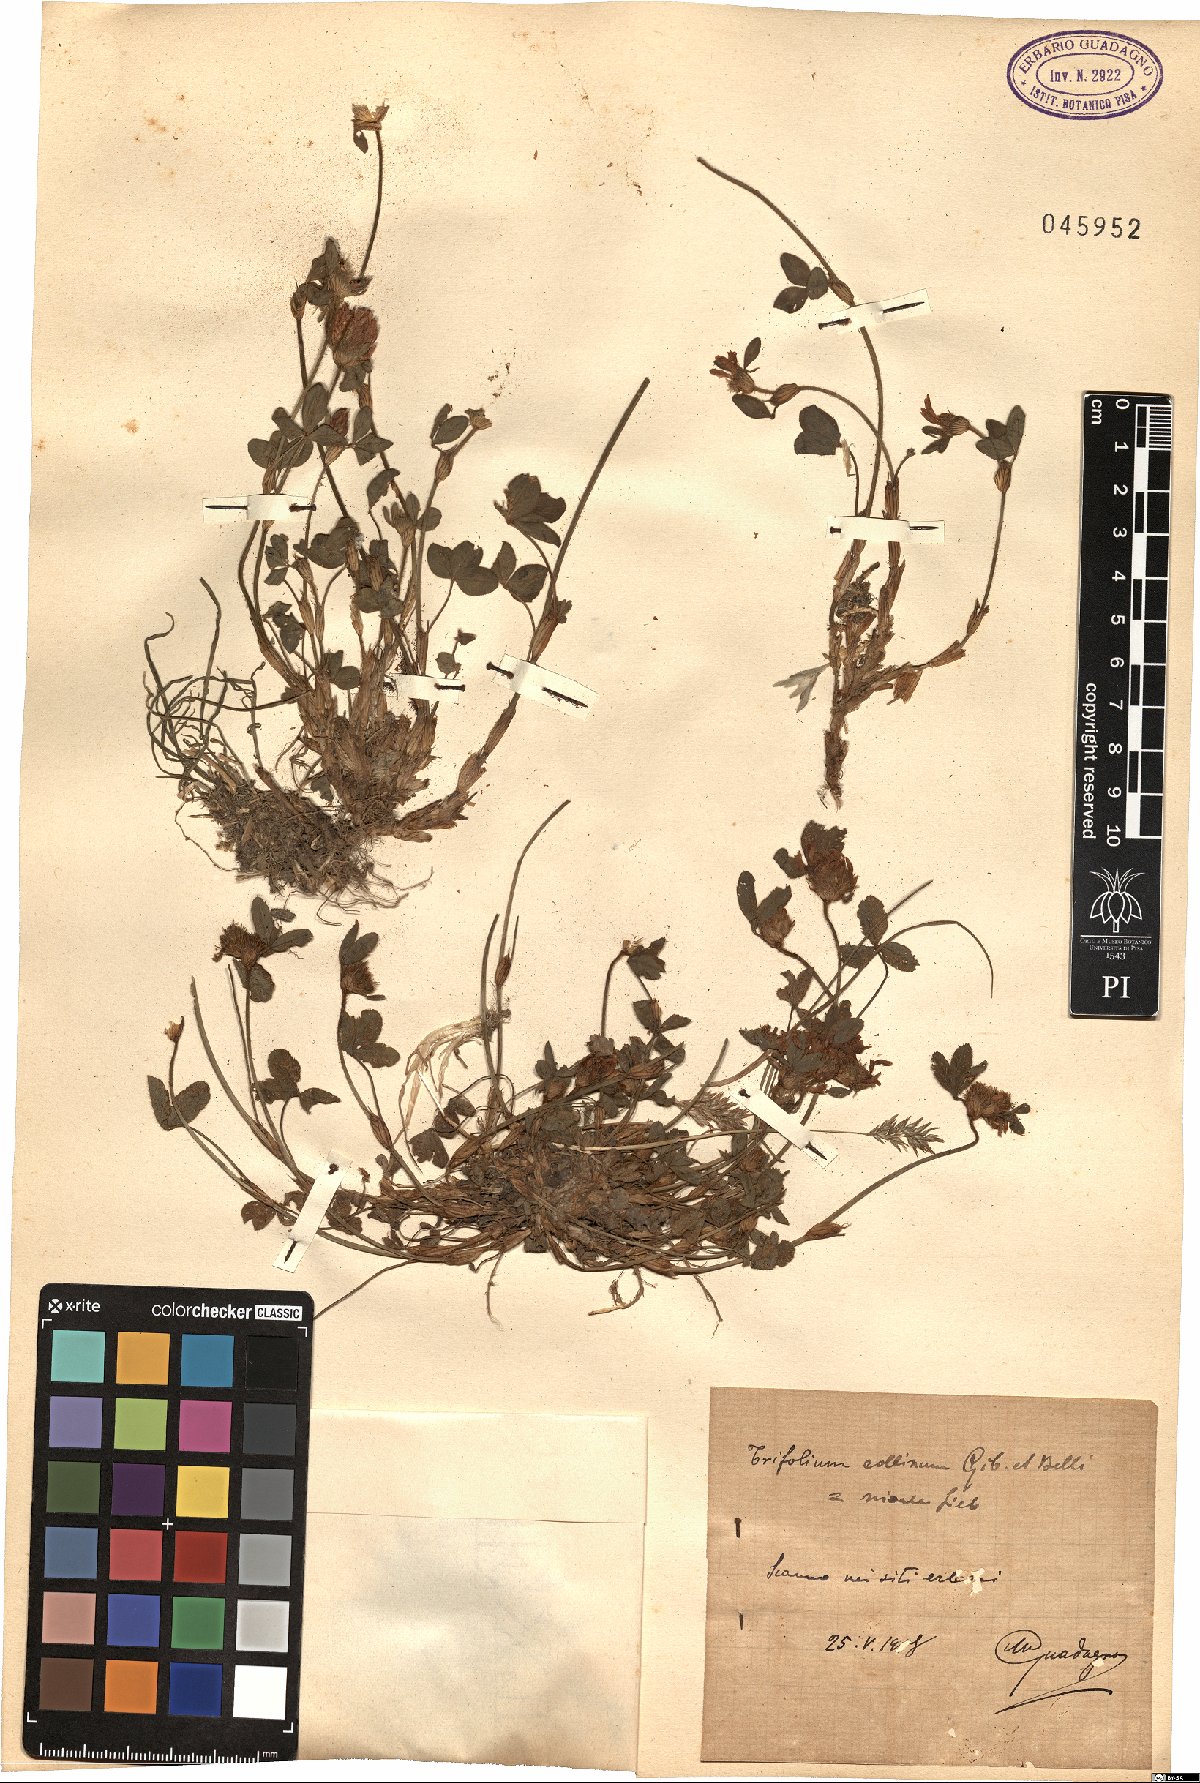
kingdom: Plantae
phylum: Tracheophyta
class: Magnoliopsida
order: Fabales
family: Fabaceae
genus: Trifolium
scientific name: Trifolium pratense
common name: Red clover
